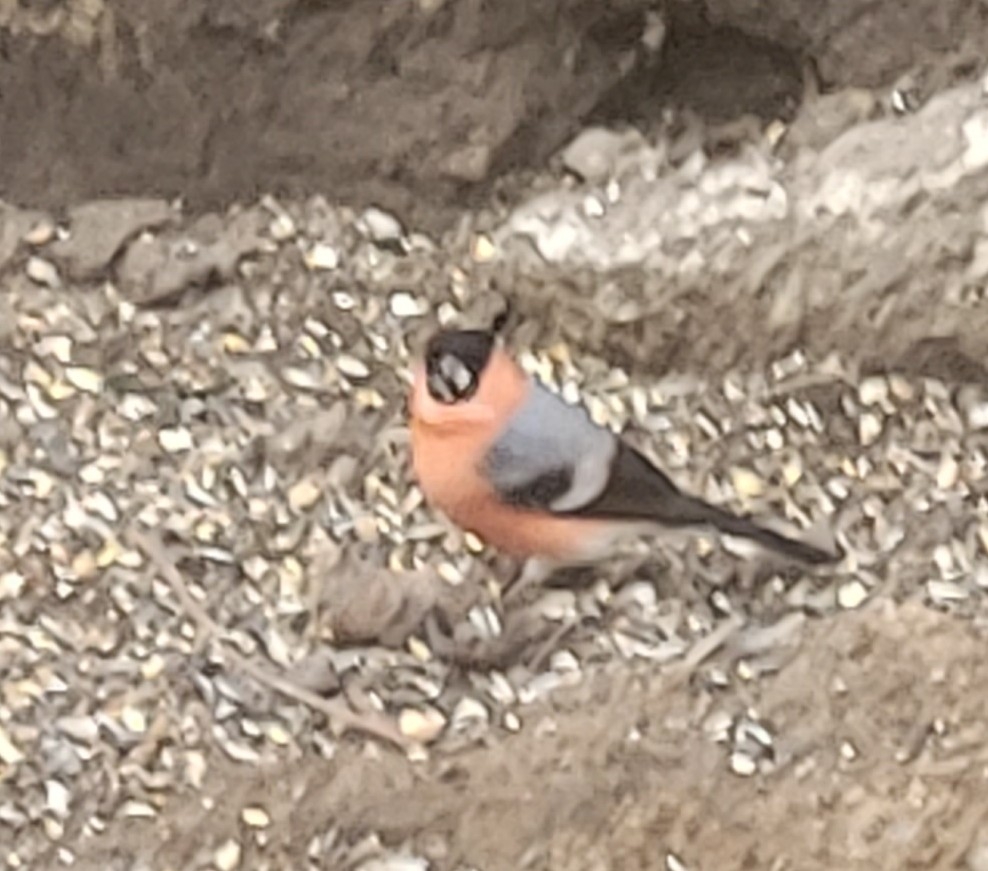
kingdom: Animalia
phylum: Chordata
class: Aves
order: Passeriformes
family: Fringillidae
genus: Pyrrhula
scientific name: Pyrrhula pyrrhula
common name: Dompap
